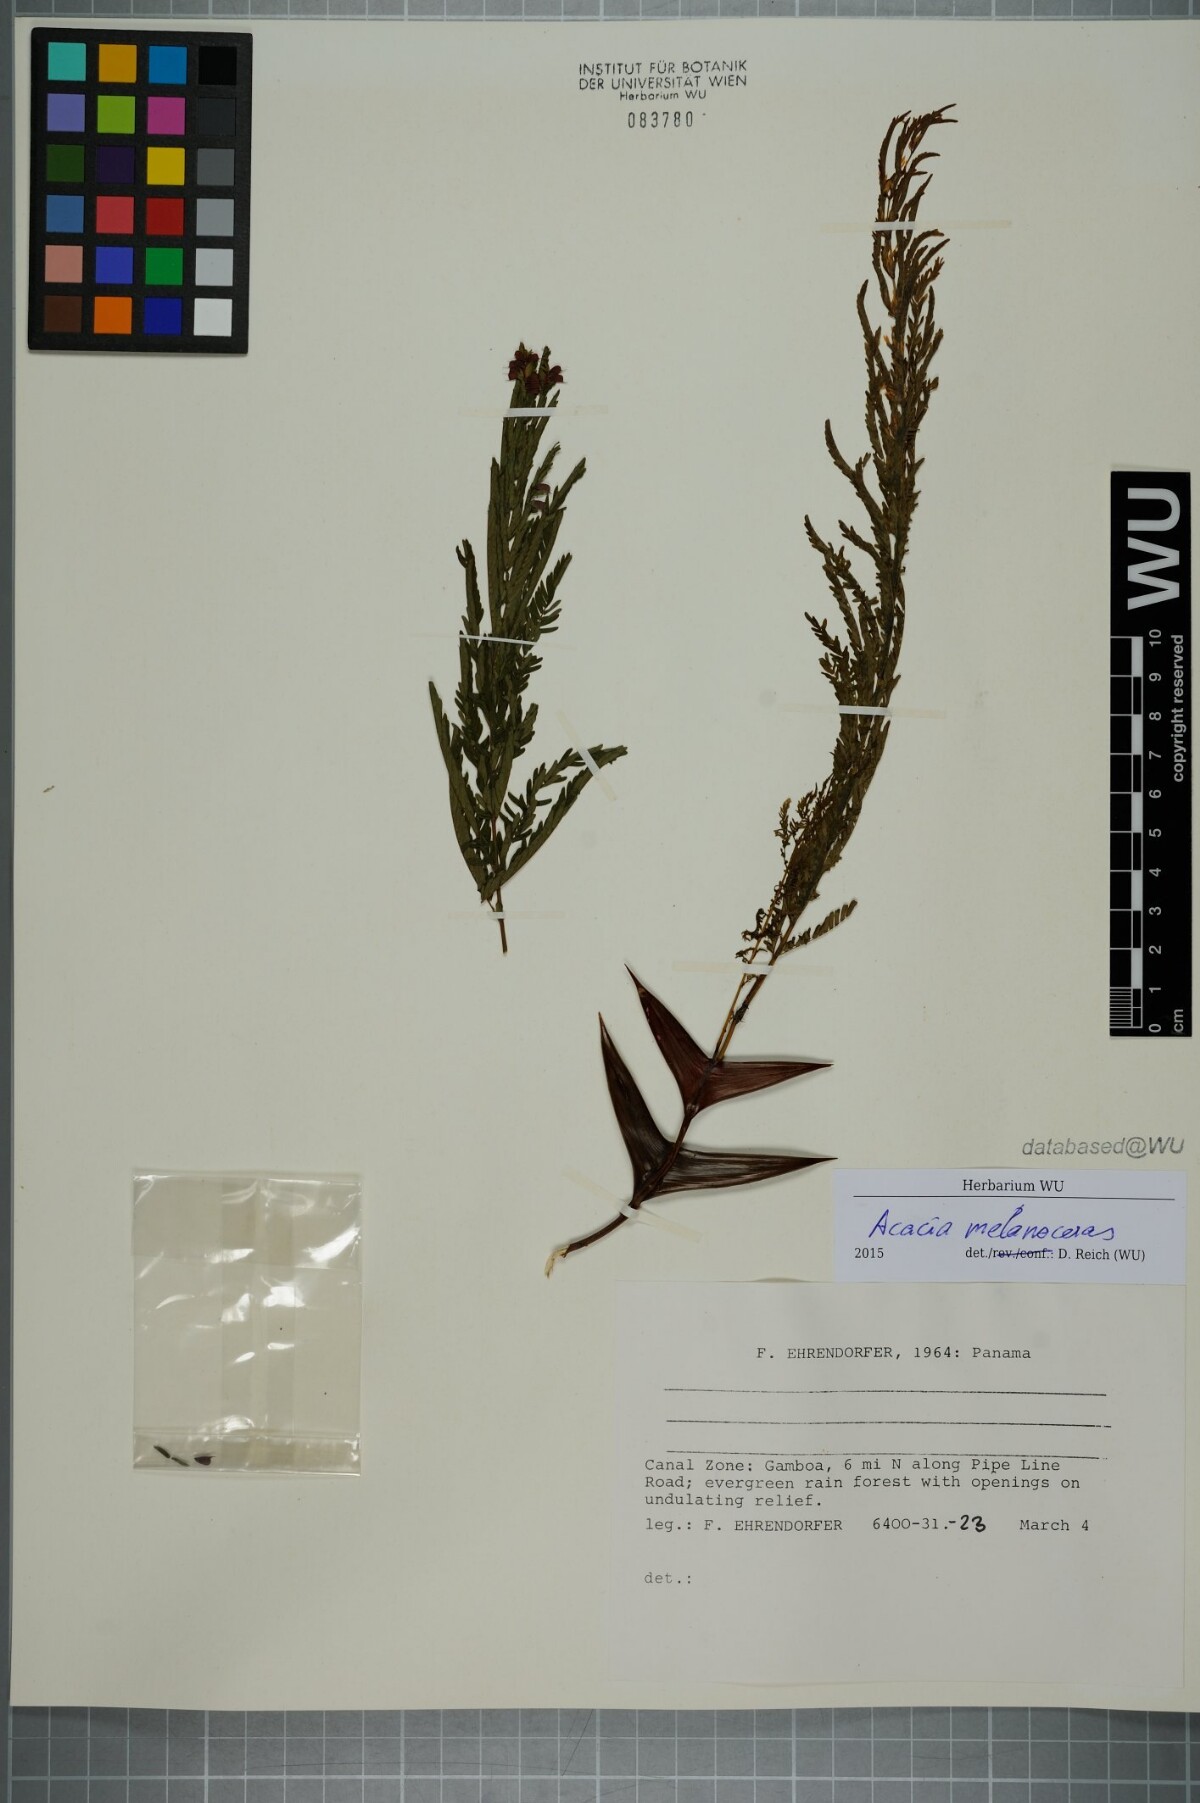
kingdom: Plantae
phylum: Tracheophyta
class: Magnoliopsida
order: Fabales
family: Fabaceae
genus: Vachellia
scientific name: Vachellia melanoceras
